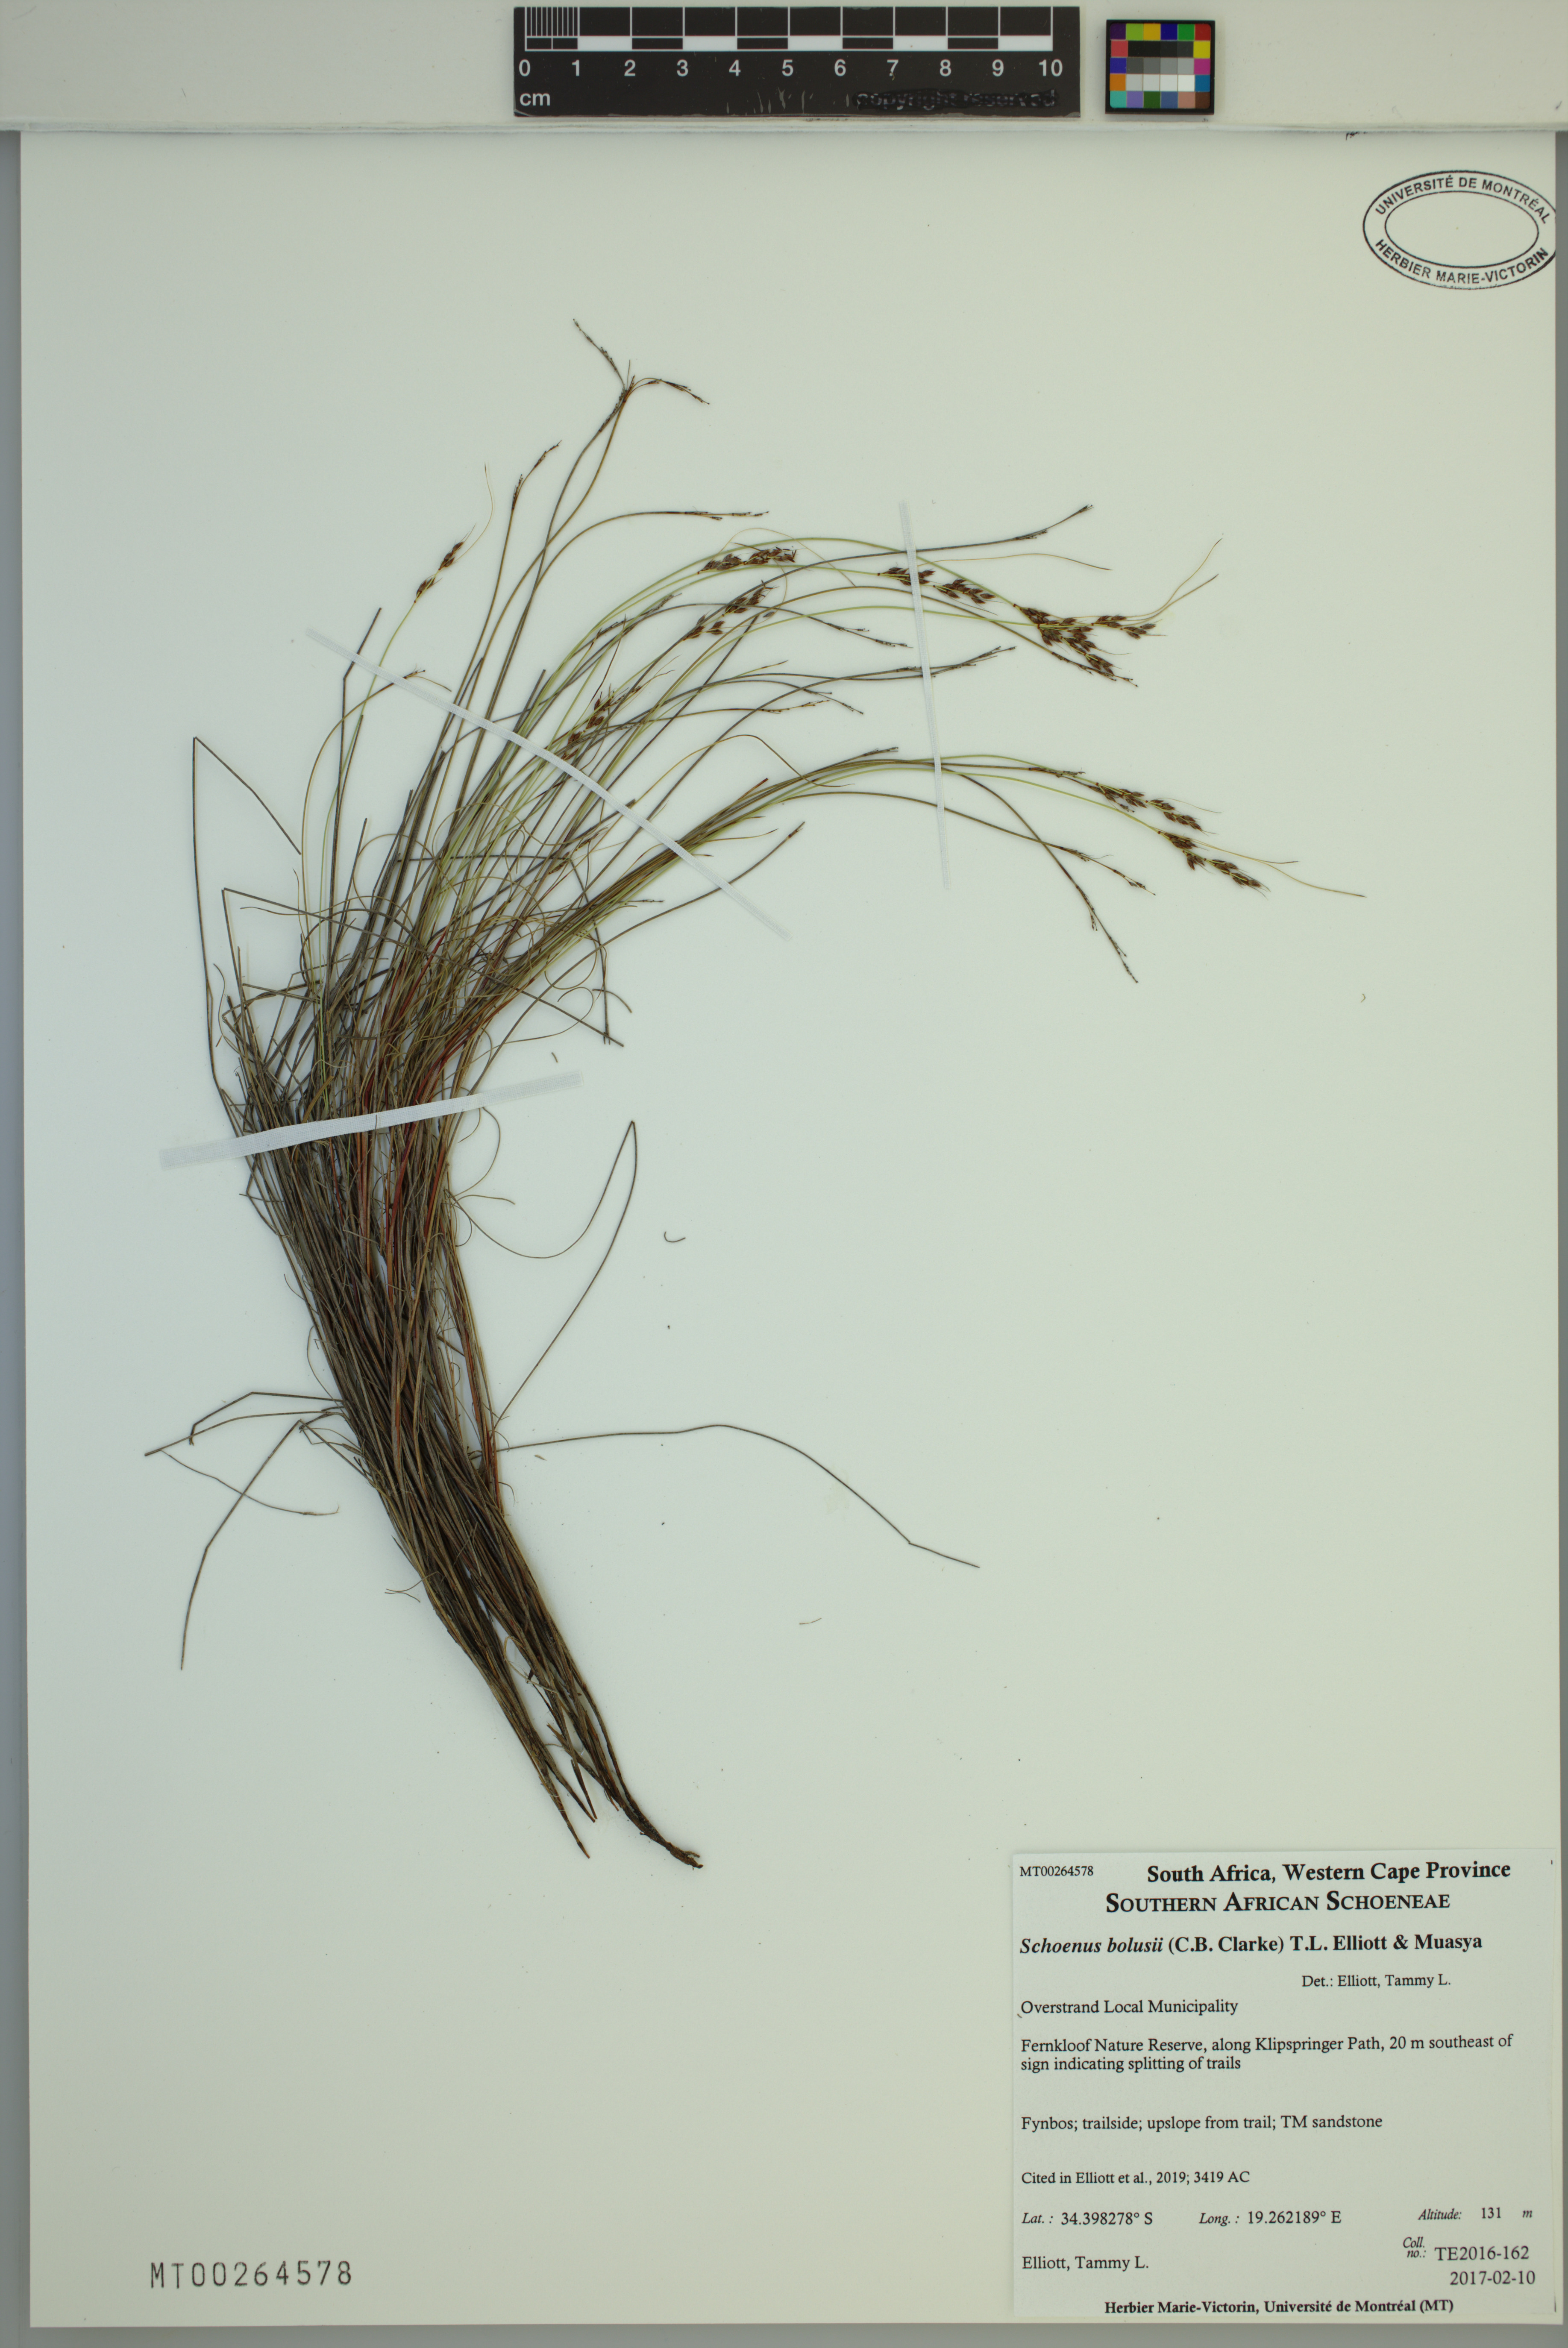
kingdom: Plantae
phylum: Tracheophyta
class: Liliopsida
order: Poales
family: Cyperaceae
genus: Schoenus
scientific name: Schoenus bolusii
